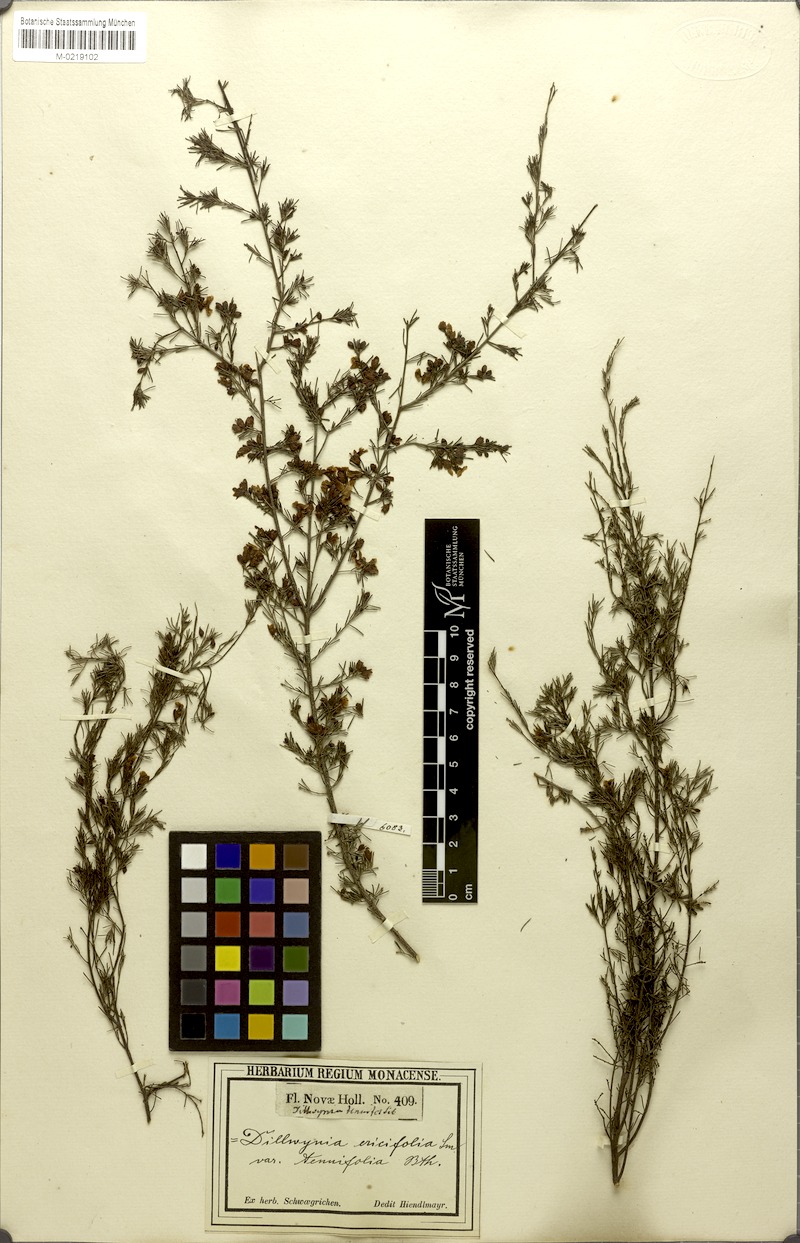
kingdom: Plantae
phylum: Tracheophyta
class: Magnoliopsida
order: Fabales
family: Fabaceae
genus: Dillwynia
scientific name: Dillwynia tenuifolia
